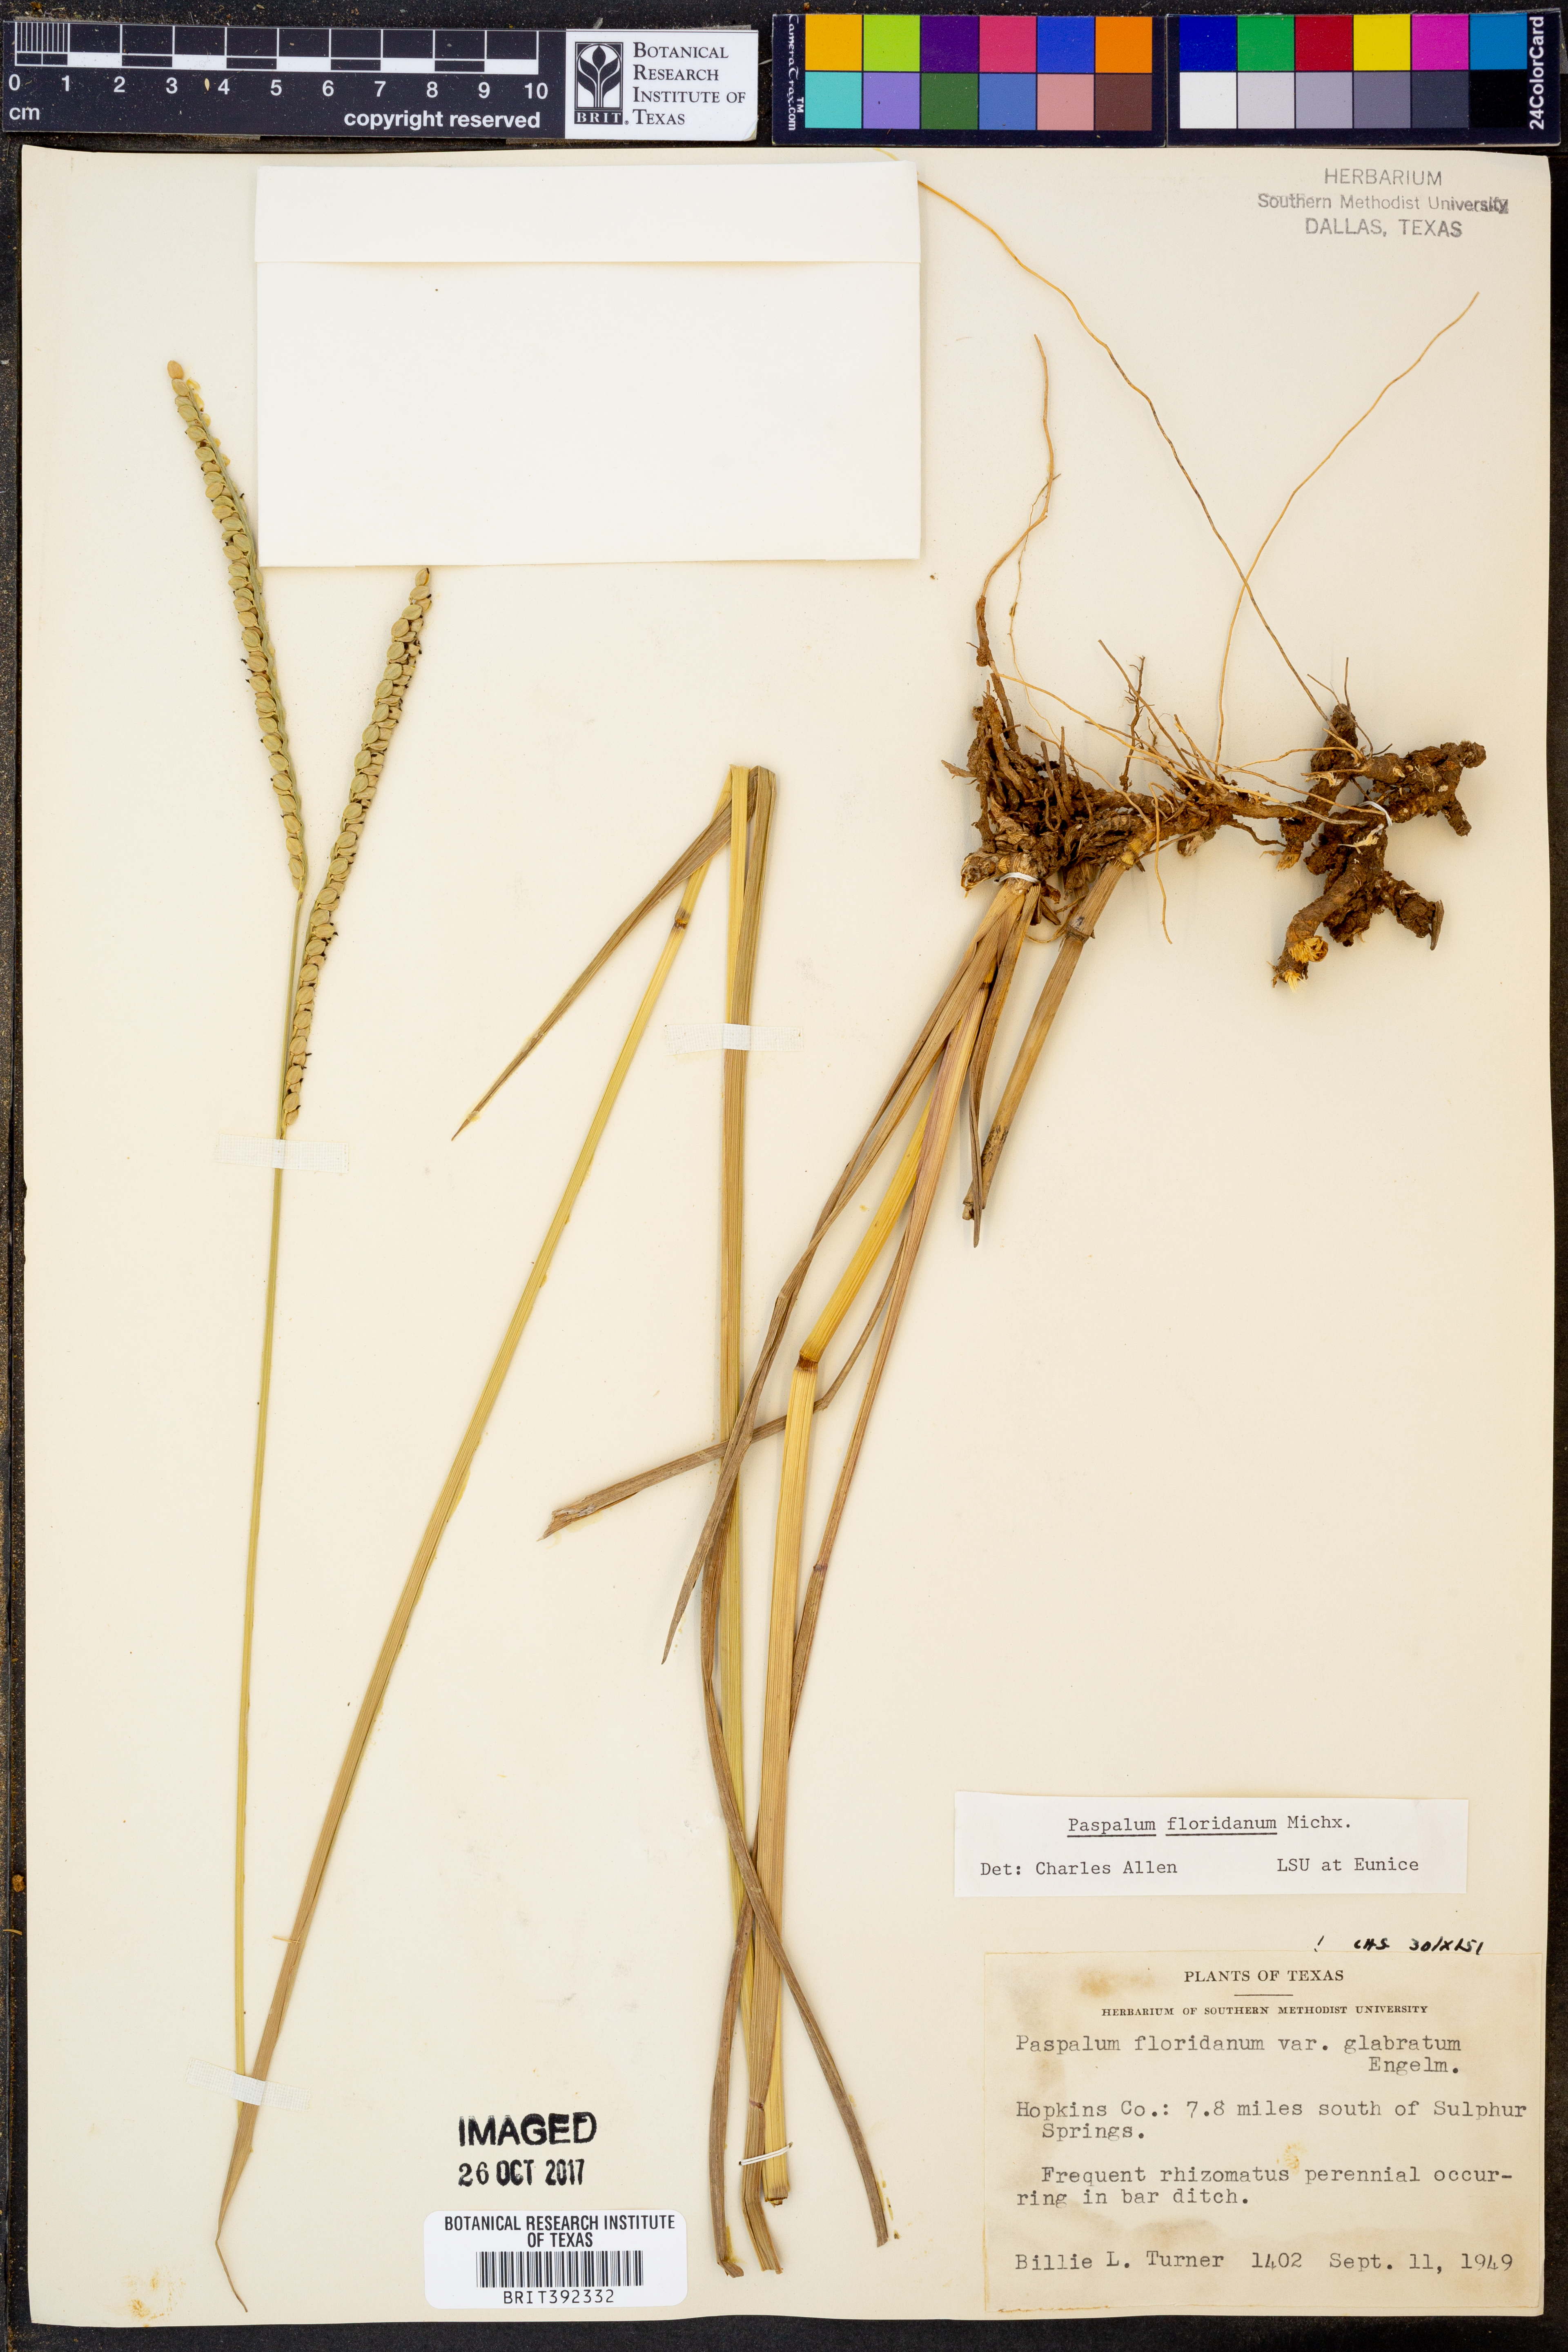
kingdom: Plantae
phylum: Tracheophyta
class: Liliopsida
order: Poales
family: Poaceae
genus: Paspalum
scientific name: Paspalum floridanum
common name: Florida paspalum
